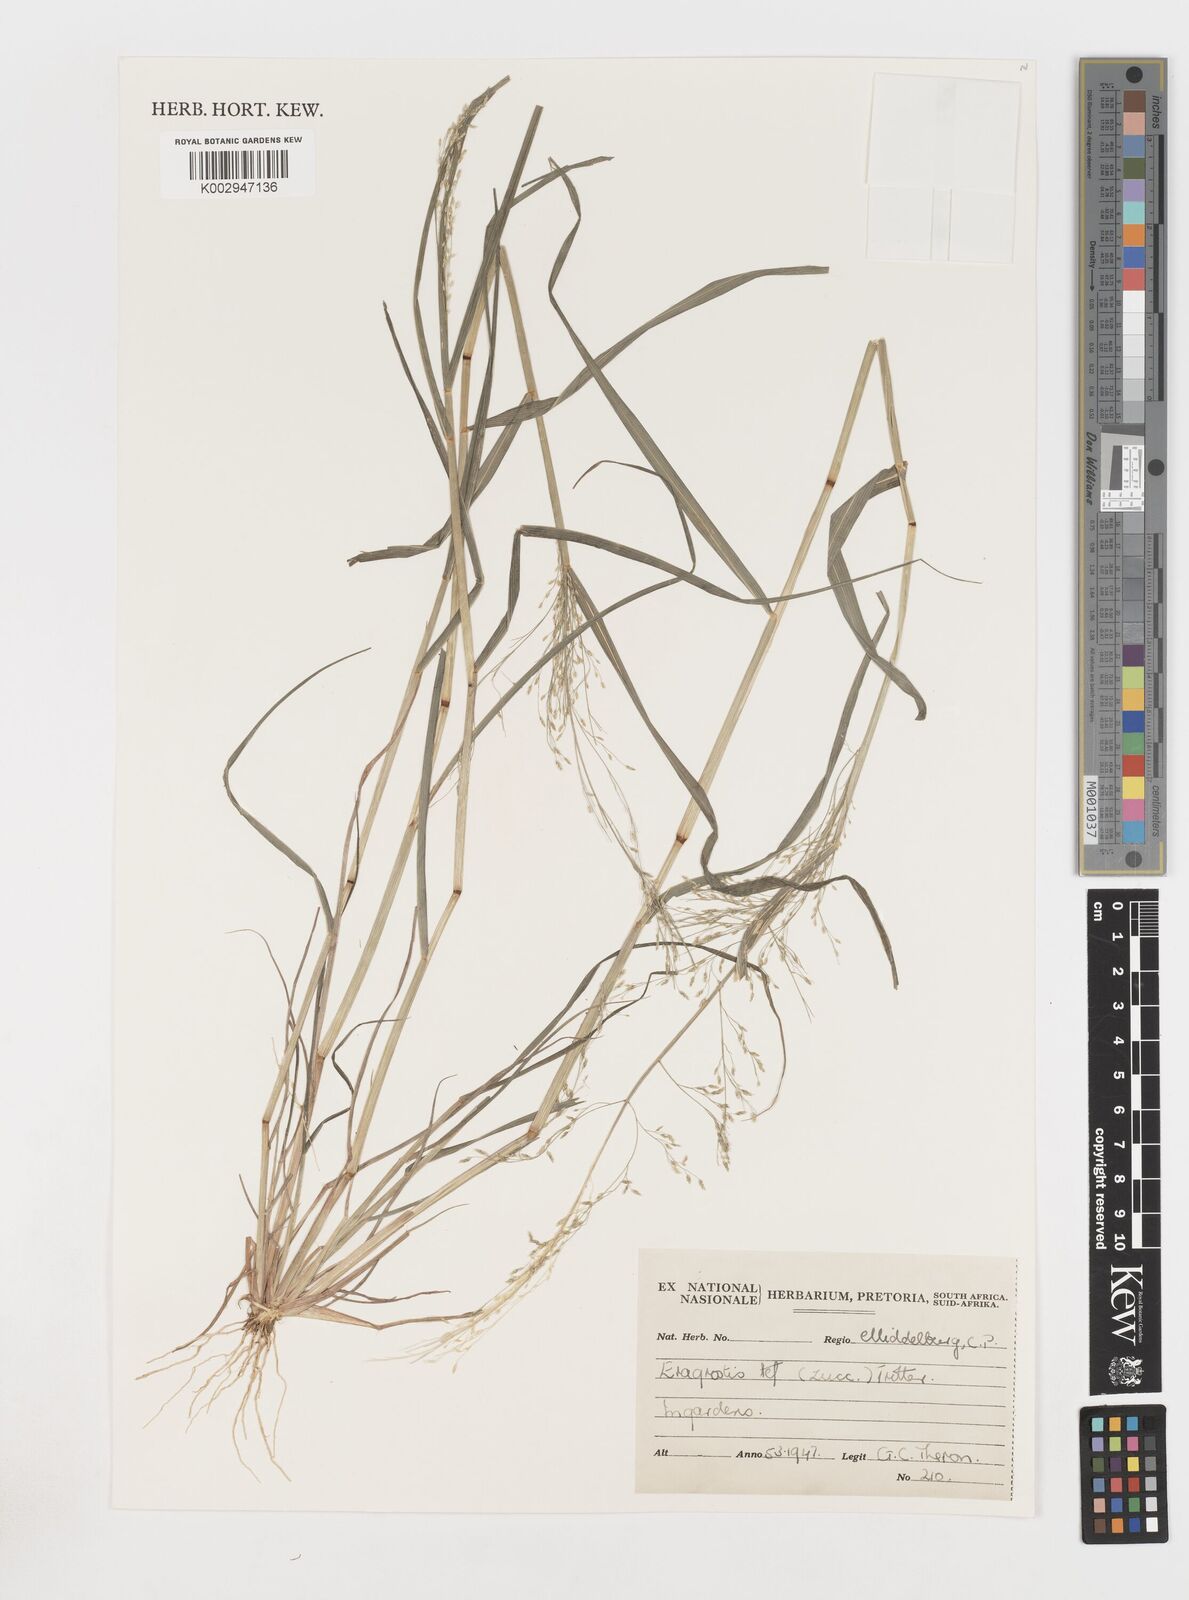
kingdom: Plantae
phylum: Tracheophyta
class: Liliopsida
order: Poales
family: Poaceae
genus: Eragrostis
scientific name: Eragrostis tef
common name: Teff
